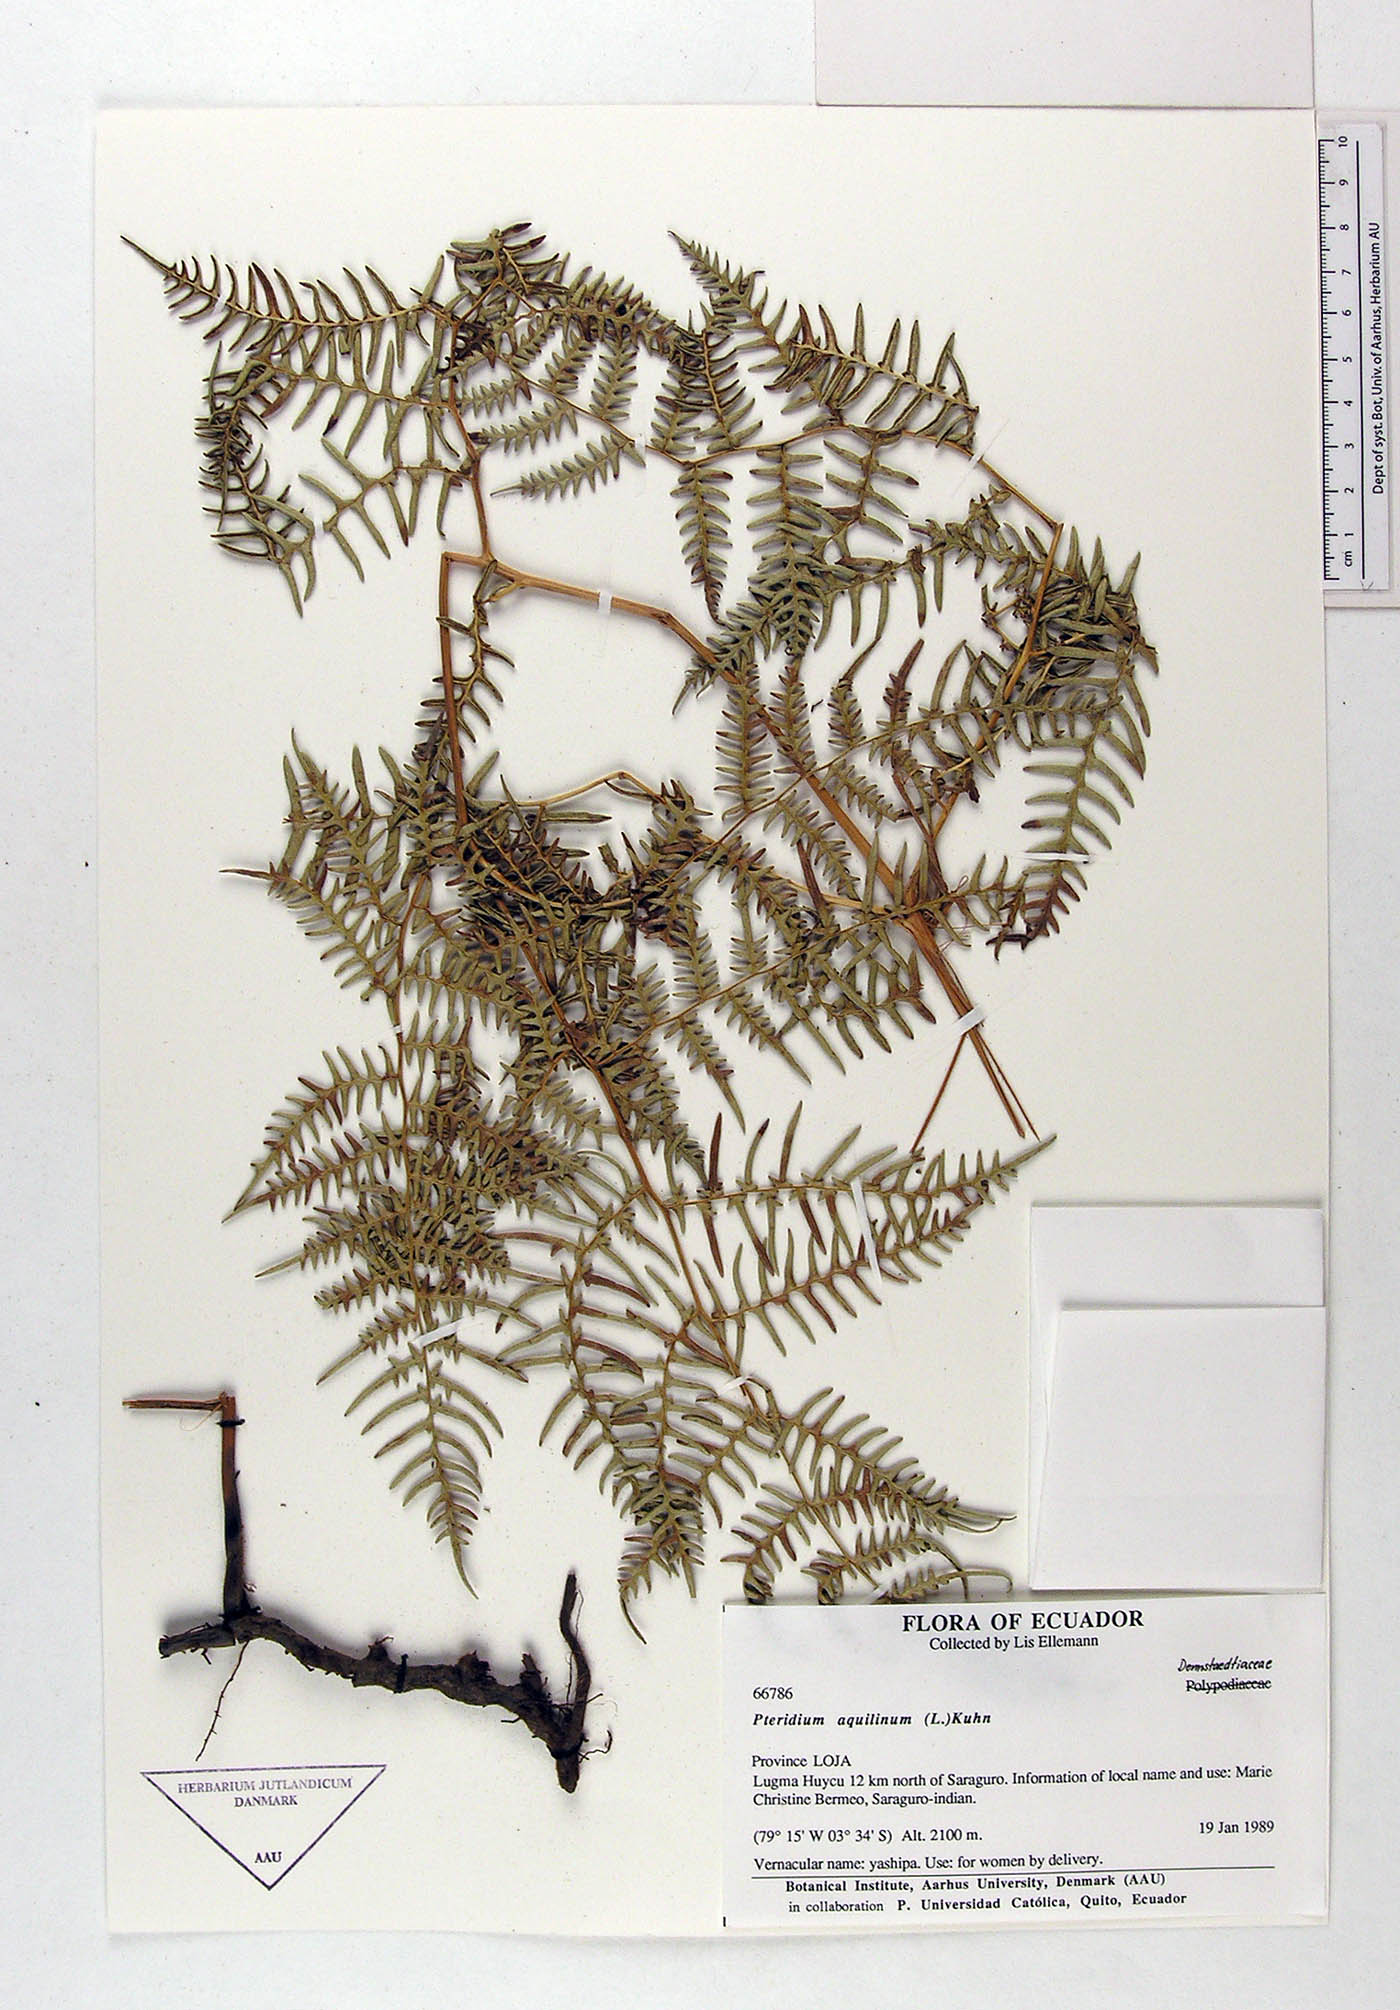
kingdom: Plantae
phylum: Tracheophyta
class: Polypodiopsida
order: Polypodiales
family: Dennstaedtiaceae
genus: Pteridium
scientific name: Pteridium aquilinum
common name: Bracken
